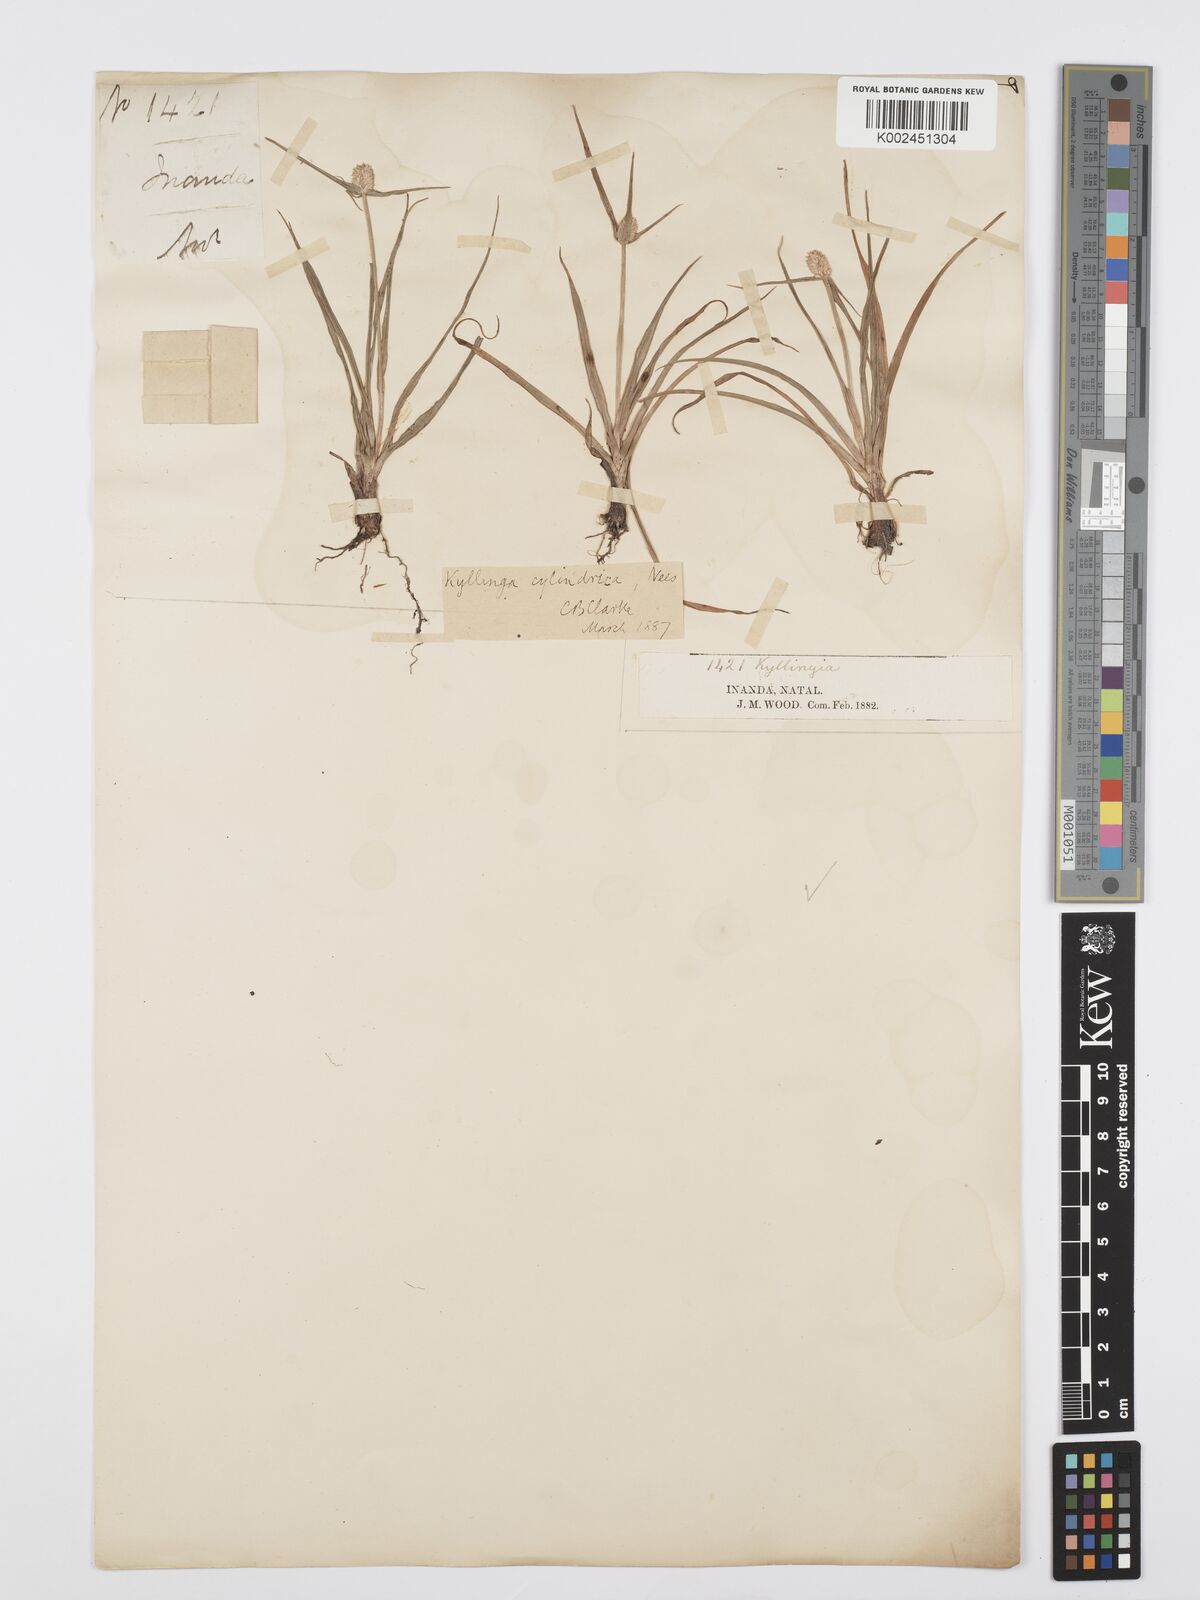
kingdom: Plantae
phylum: Tracheophyta
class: Liliopsida
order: Poales
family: Cyperaceae
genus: Cyperus
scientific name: Cyperus
